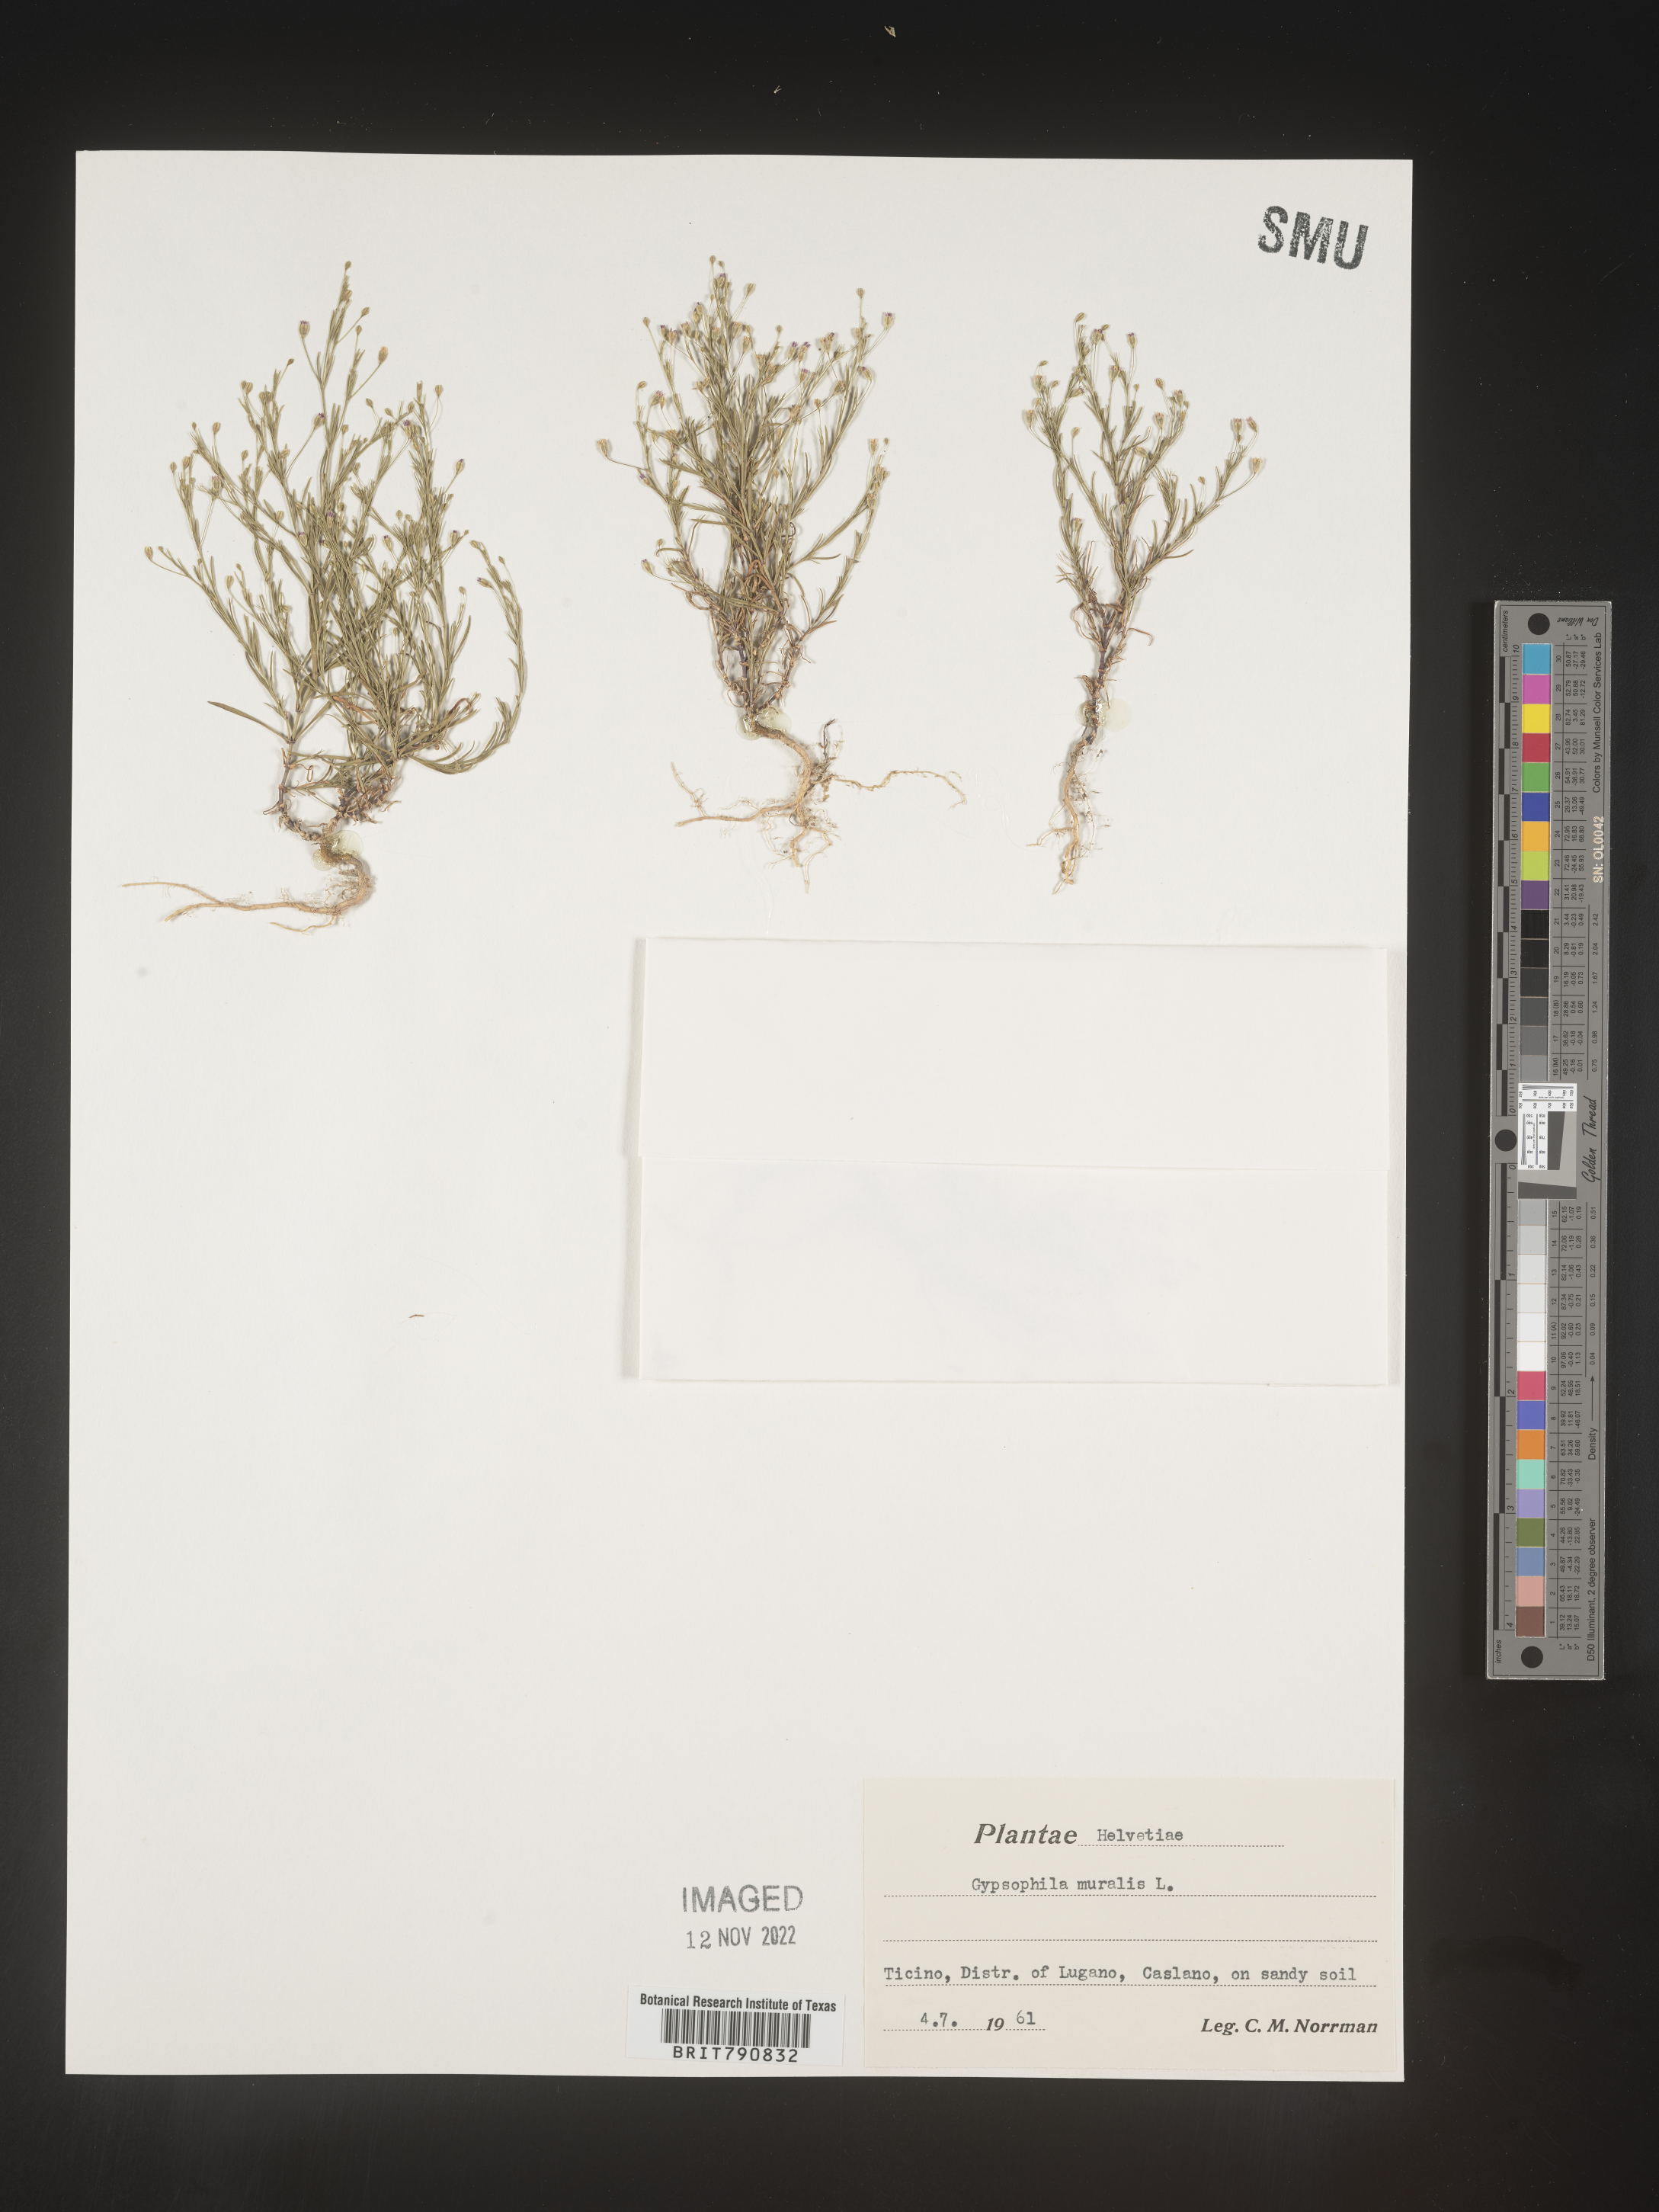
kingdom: Plantae
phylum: Tracheophyta
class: Magnoliopsida
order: Caryophyllales
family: Caryophyllaceae
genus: Gypsophila
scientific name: Gypsophila
